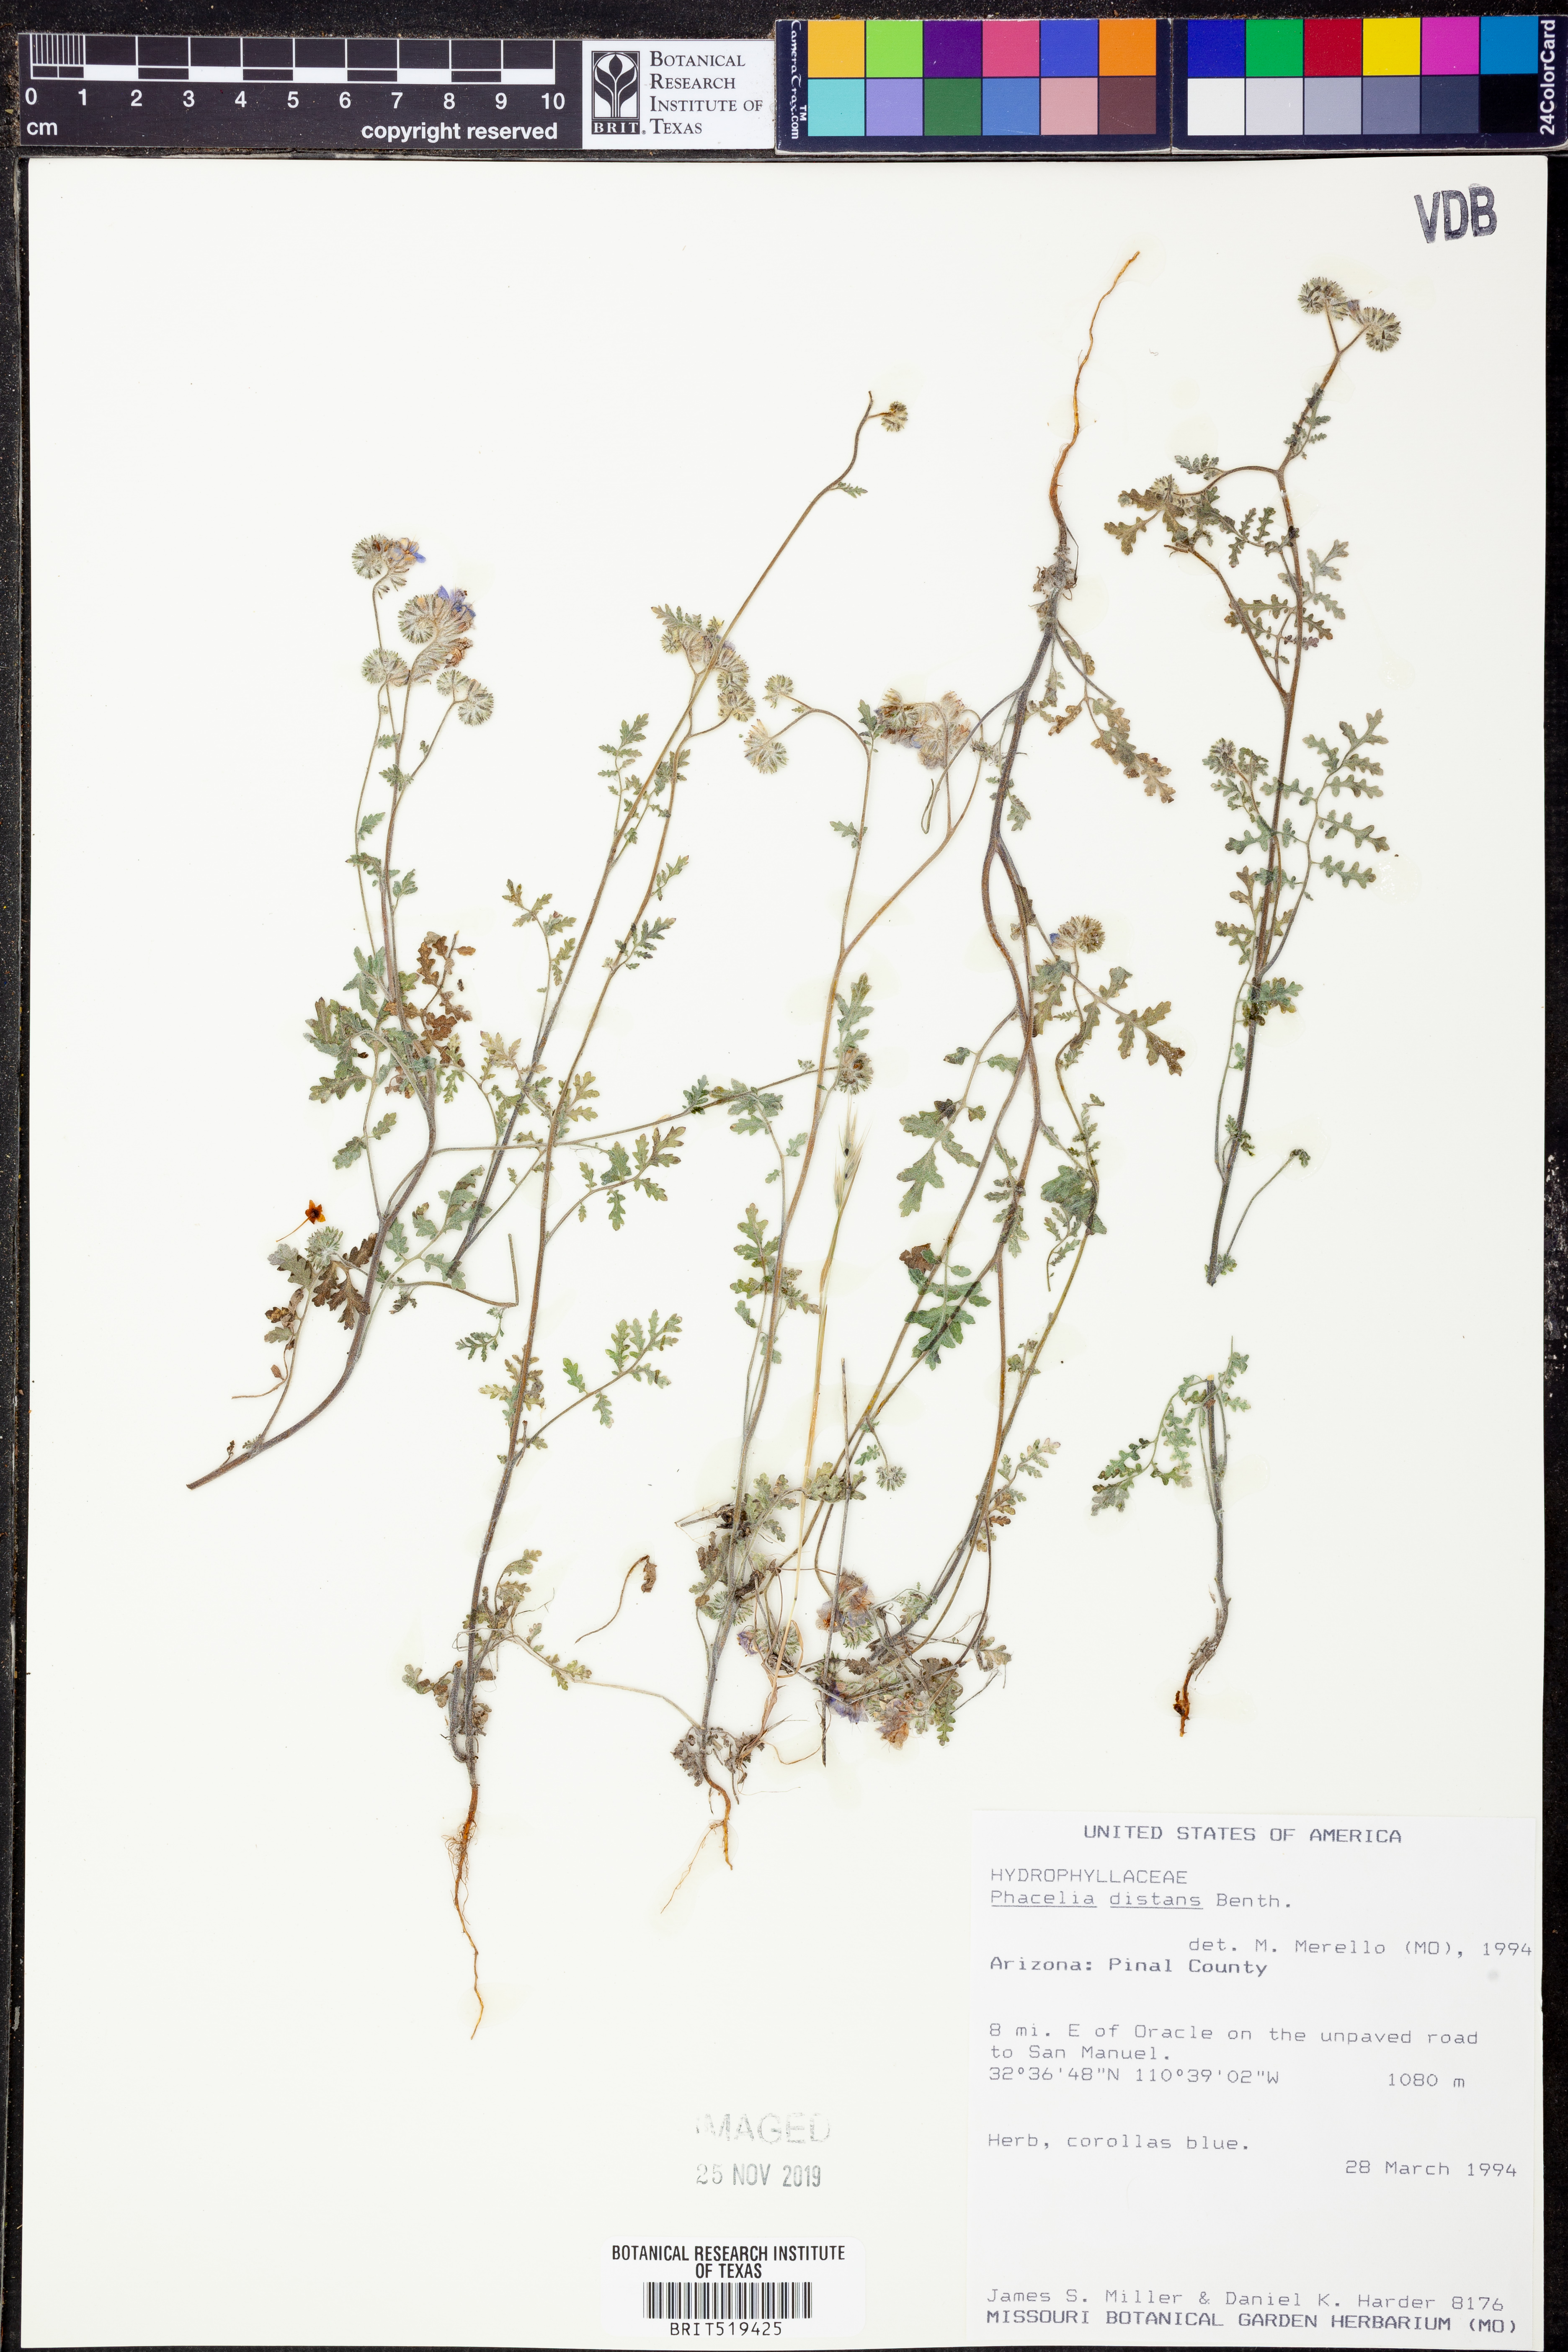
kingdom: Plantae
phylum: Tracheophyta
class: Magnoliopsida
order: Boraginales
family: Hydrophyllaceae
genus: Phacelia
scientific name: Phacelia distans
